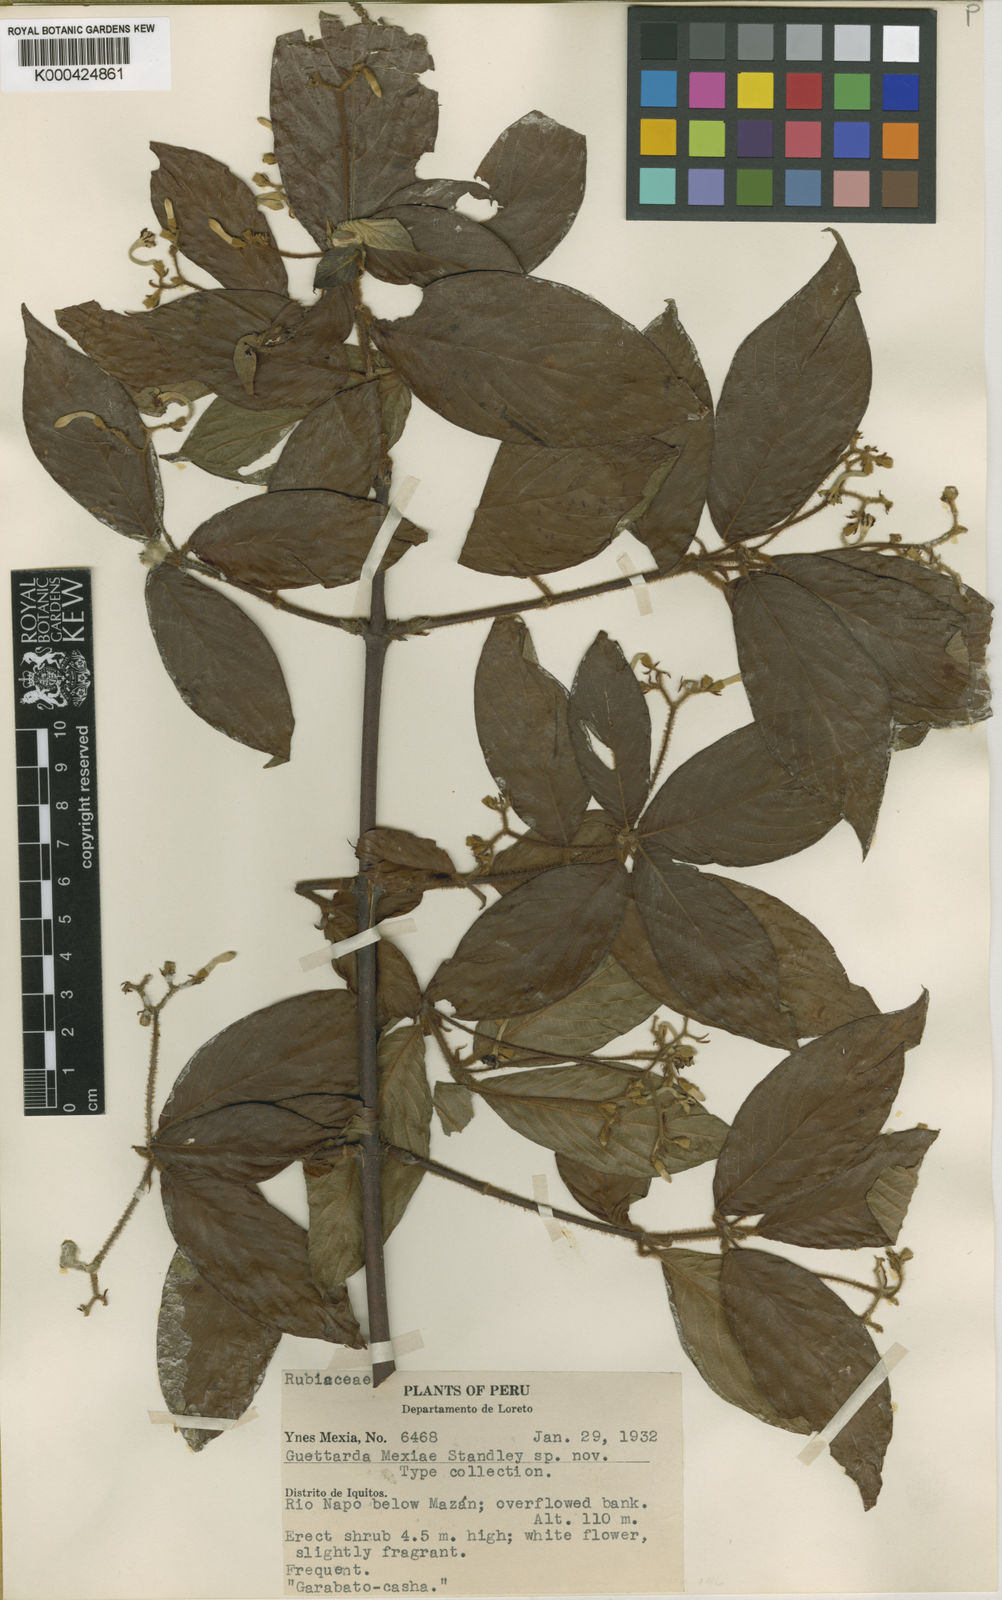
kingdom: Plantae
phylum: Tracheophyta
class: Magnoliopsida
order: Gentianales
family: Rubiaceae
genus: Guettarda
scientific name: Guettarda
